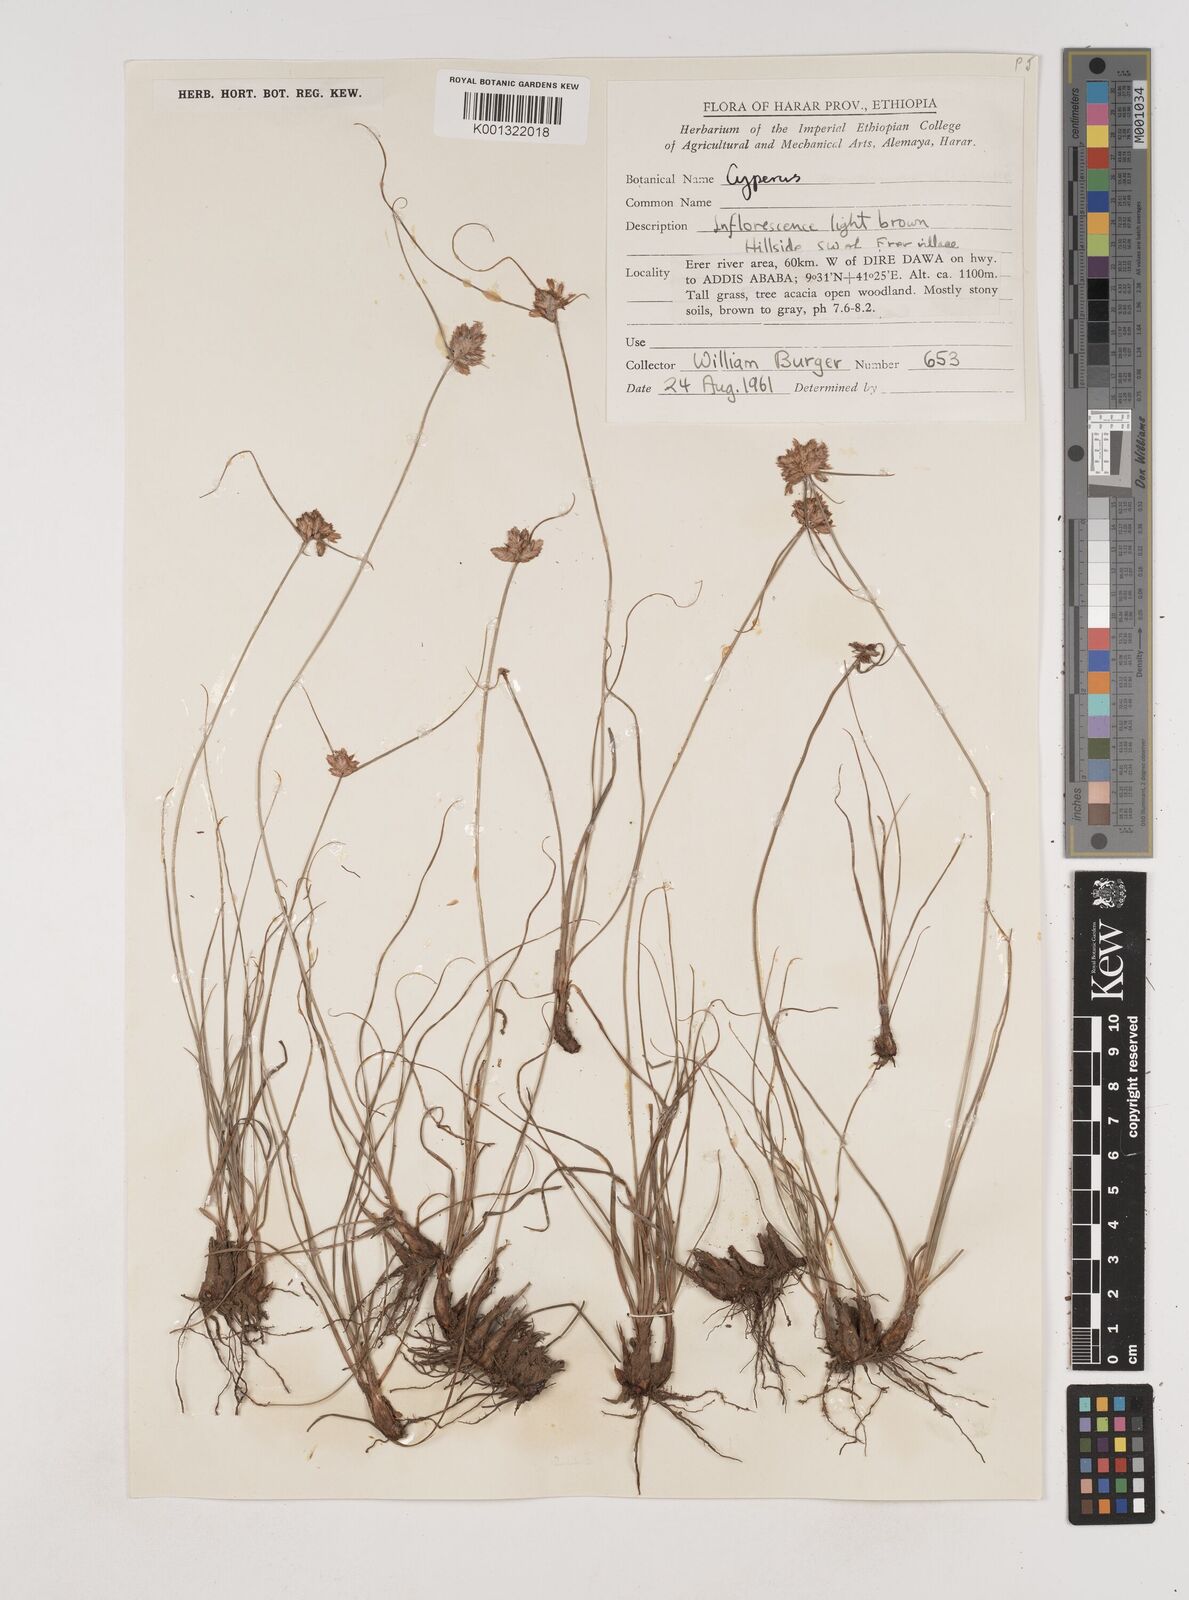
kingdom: Plantae
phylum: Tracheophyta
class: Liliopsida
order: Poales
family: Cyperaceae
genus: Cyperus
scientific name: Cyperus niveus
